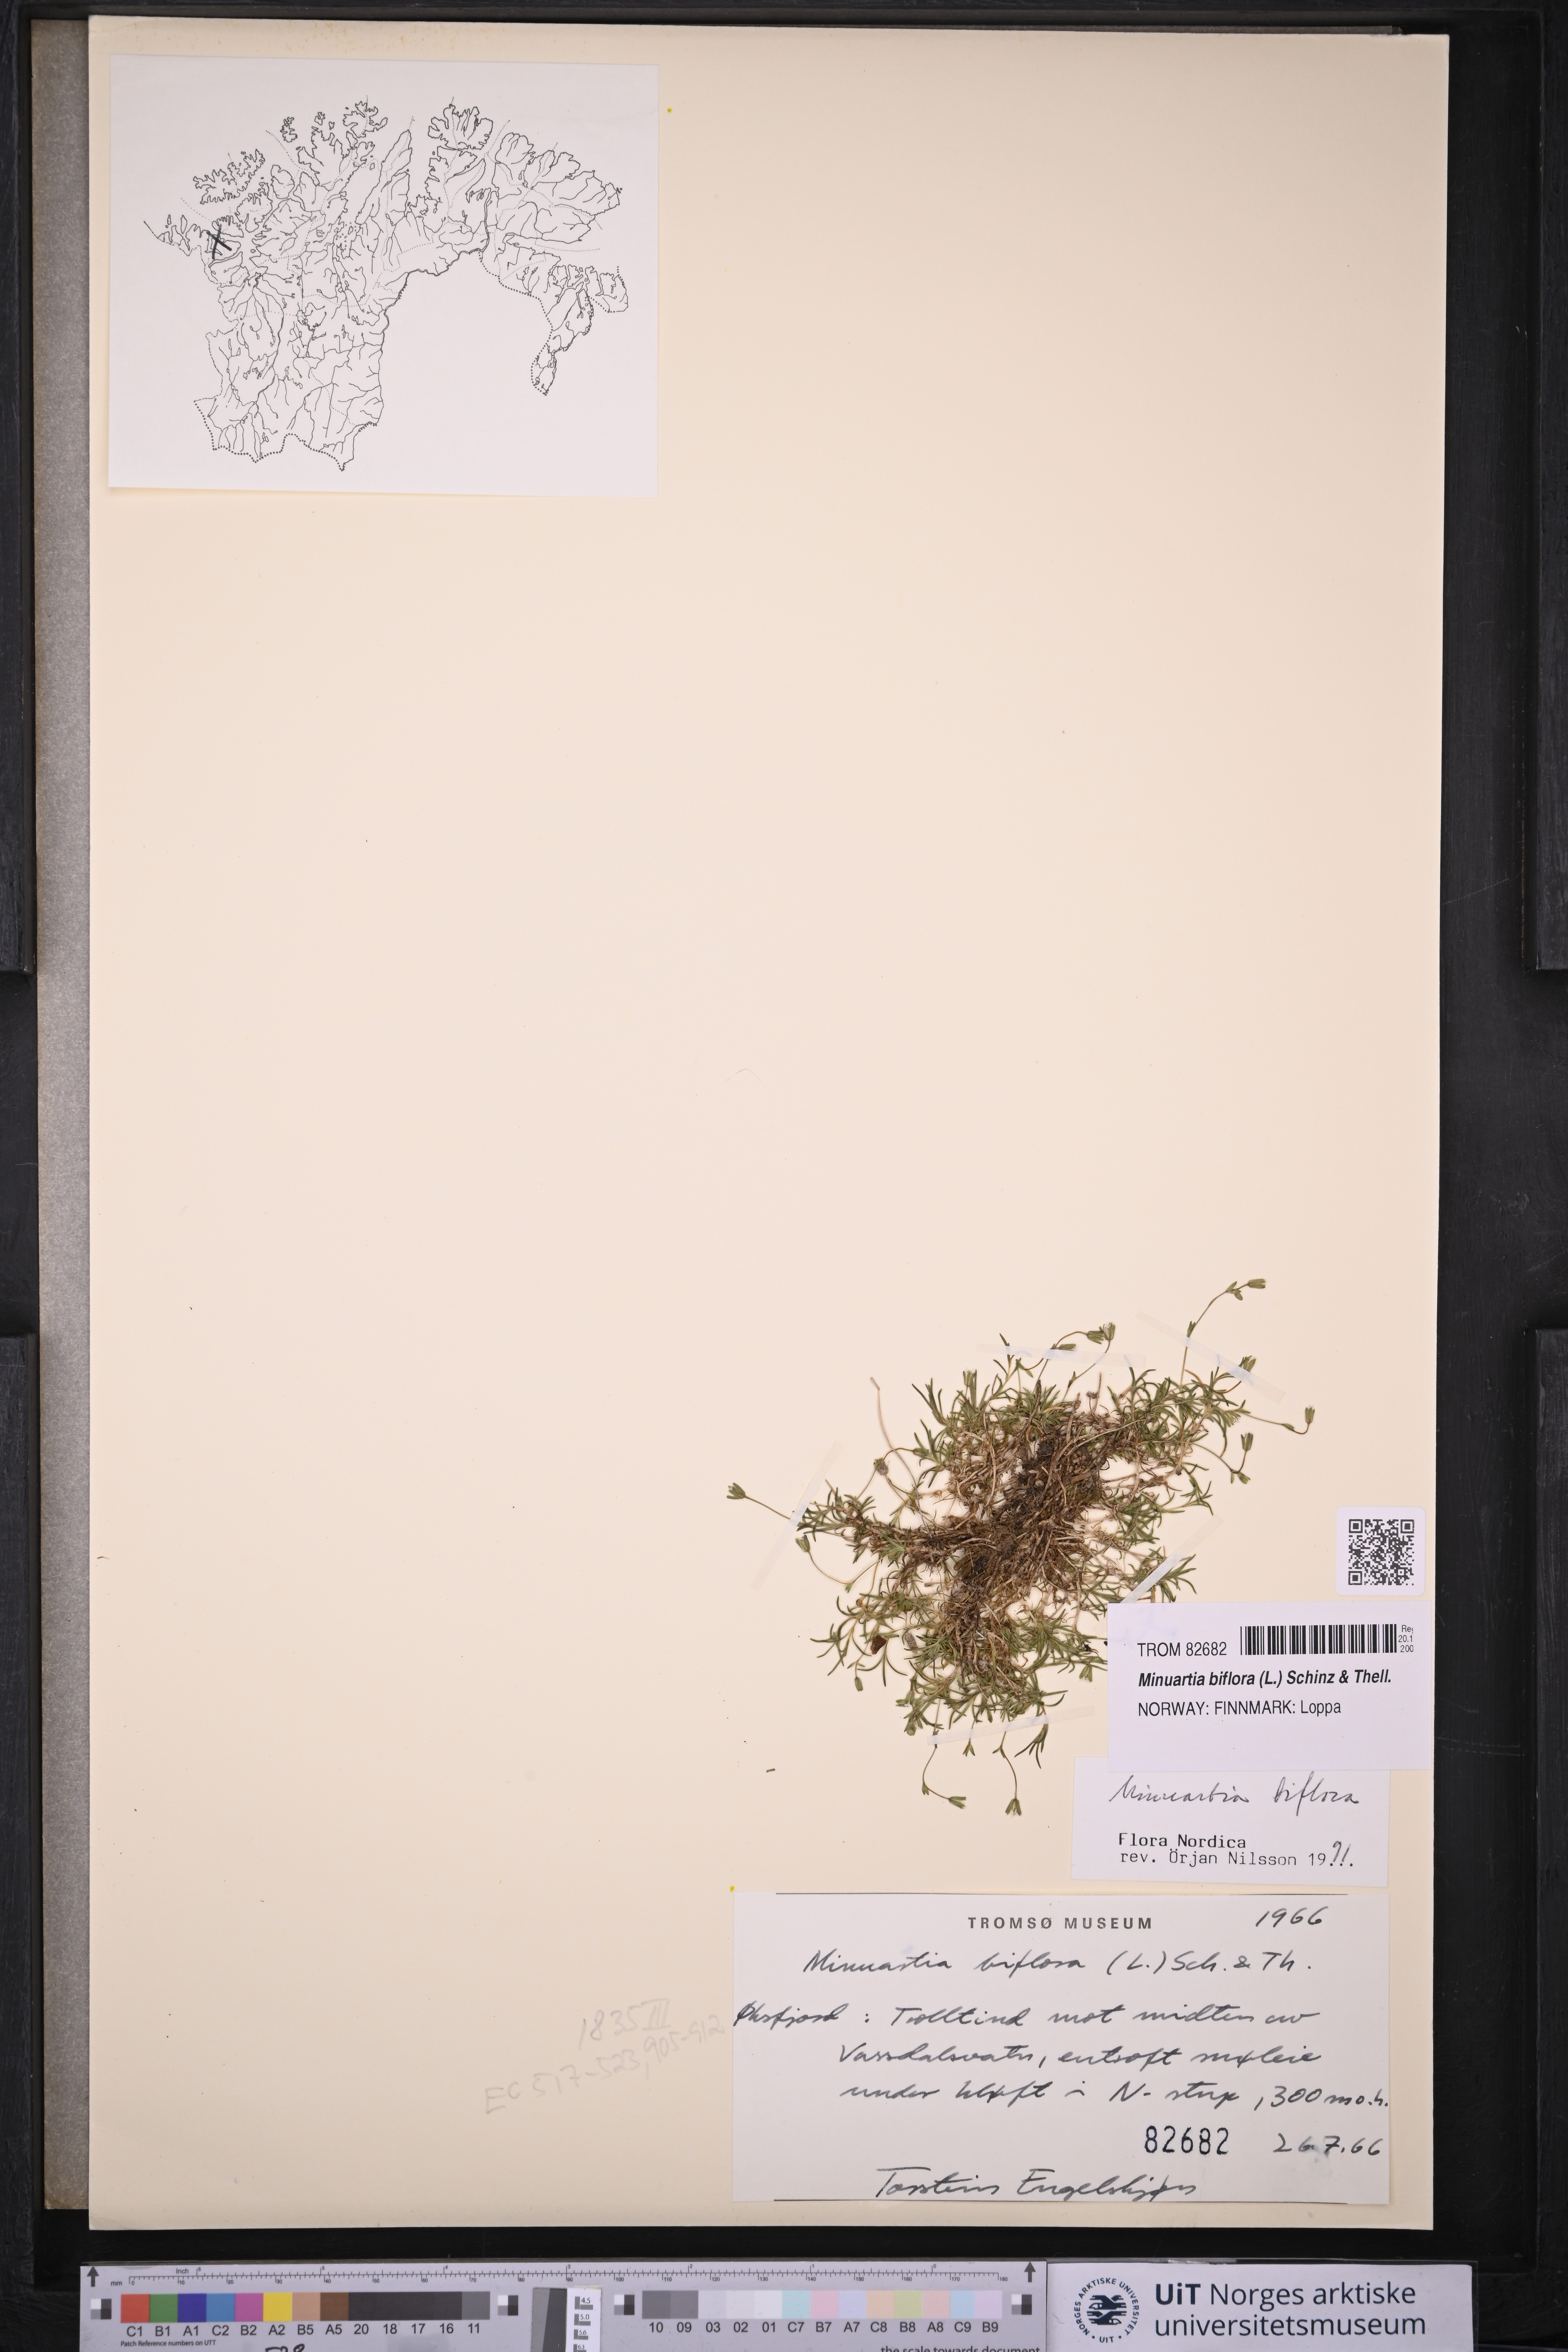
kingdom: Plantae
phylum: Tracheophyta
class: Magnoliopsida
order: Caryophyllales
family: Caryophyllaceae
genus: Cherleria
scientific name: Cherleria biflora
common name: Mountain sandwort
